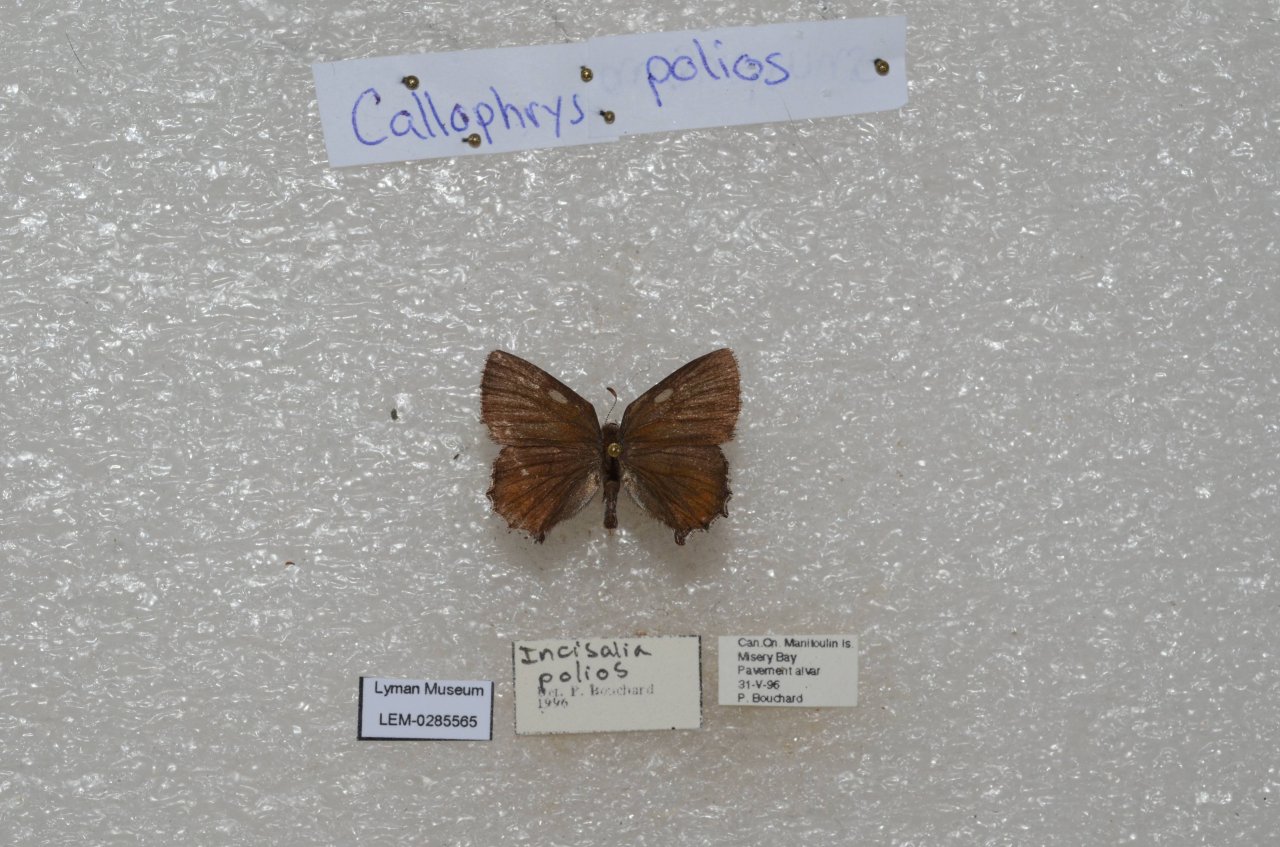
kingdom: Animalia
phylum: Arthropoda
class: Insecta
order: Lepidoptera
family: Lycaenidae
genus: Callophrys
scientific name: Callophrys polios
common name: Hoary Elfin
